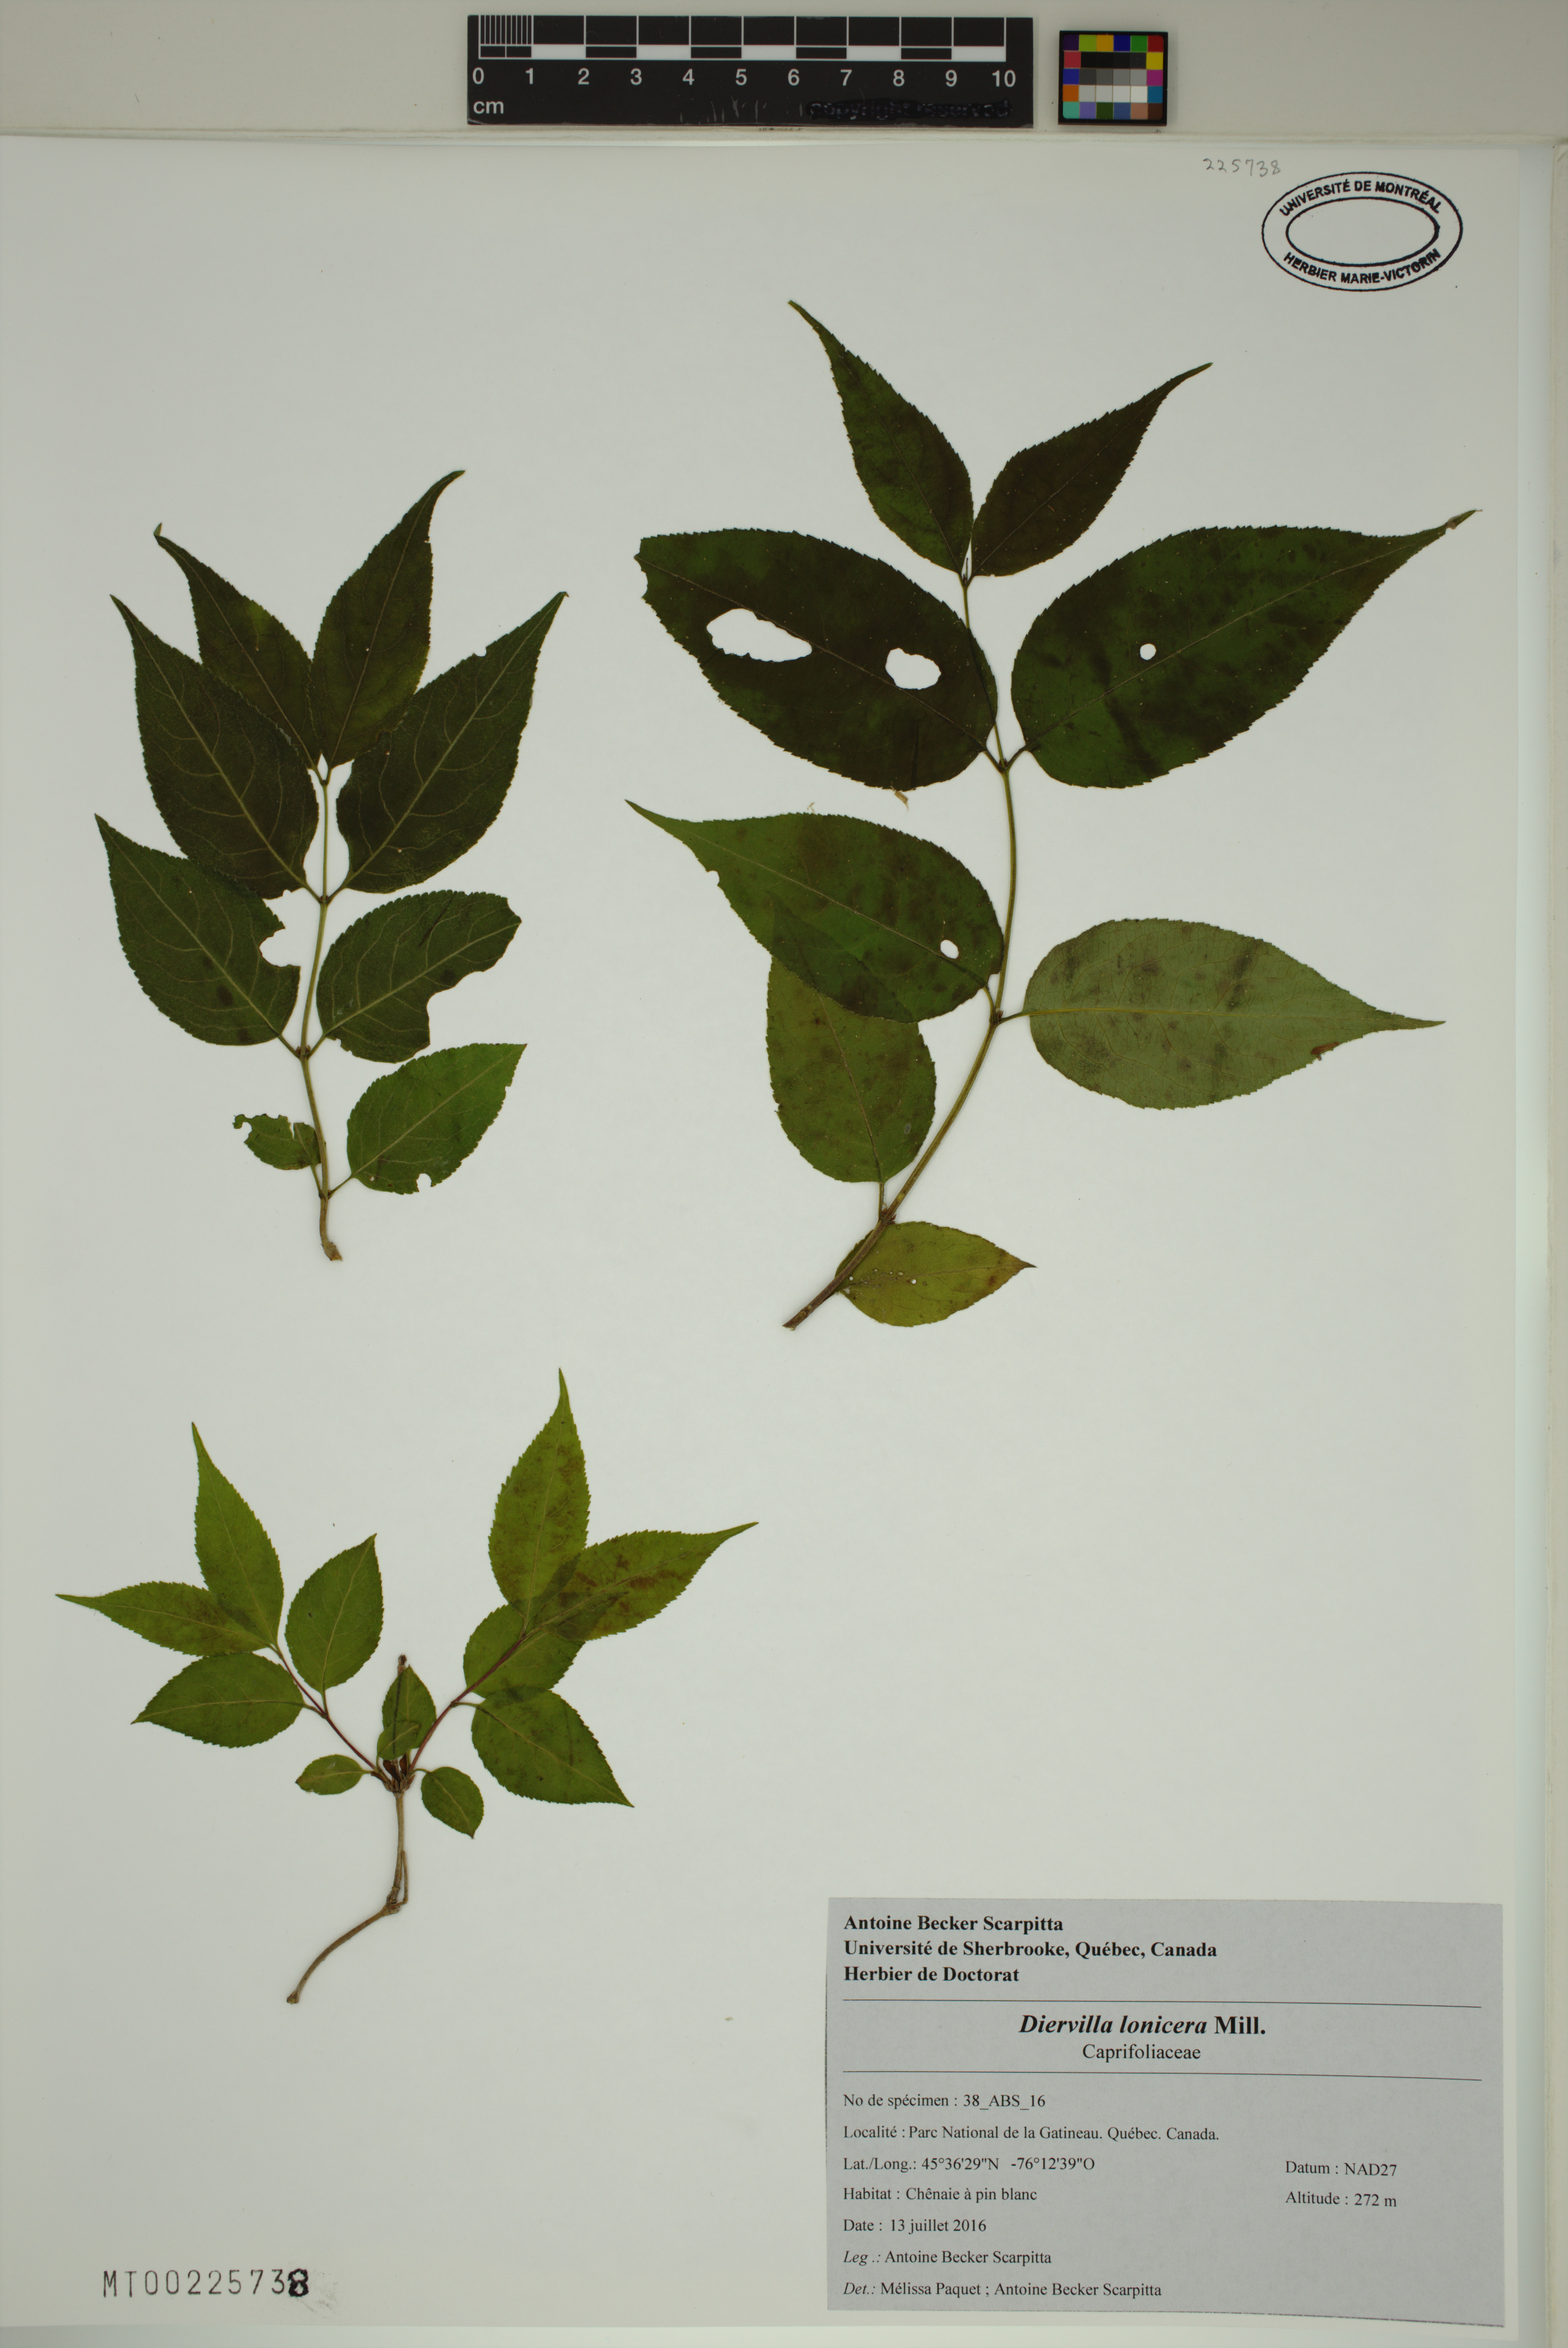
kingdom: Plantae
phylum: Tracheophyta
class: Magnoliopsida
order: Dipsacales
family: Caprifoliaceae
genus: Diervilla
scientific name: Diervilla lonicera
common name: Bush-honeysuckle
